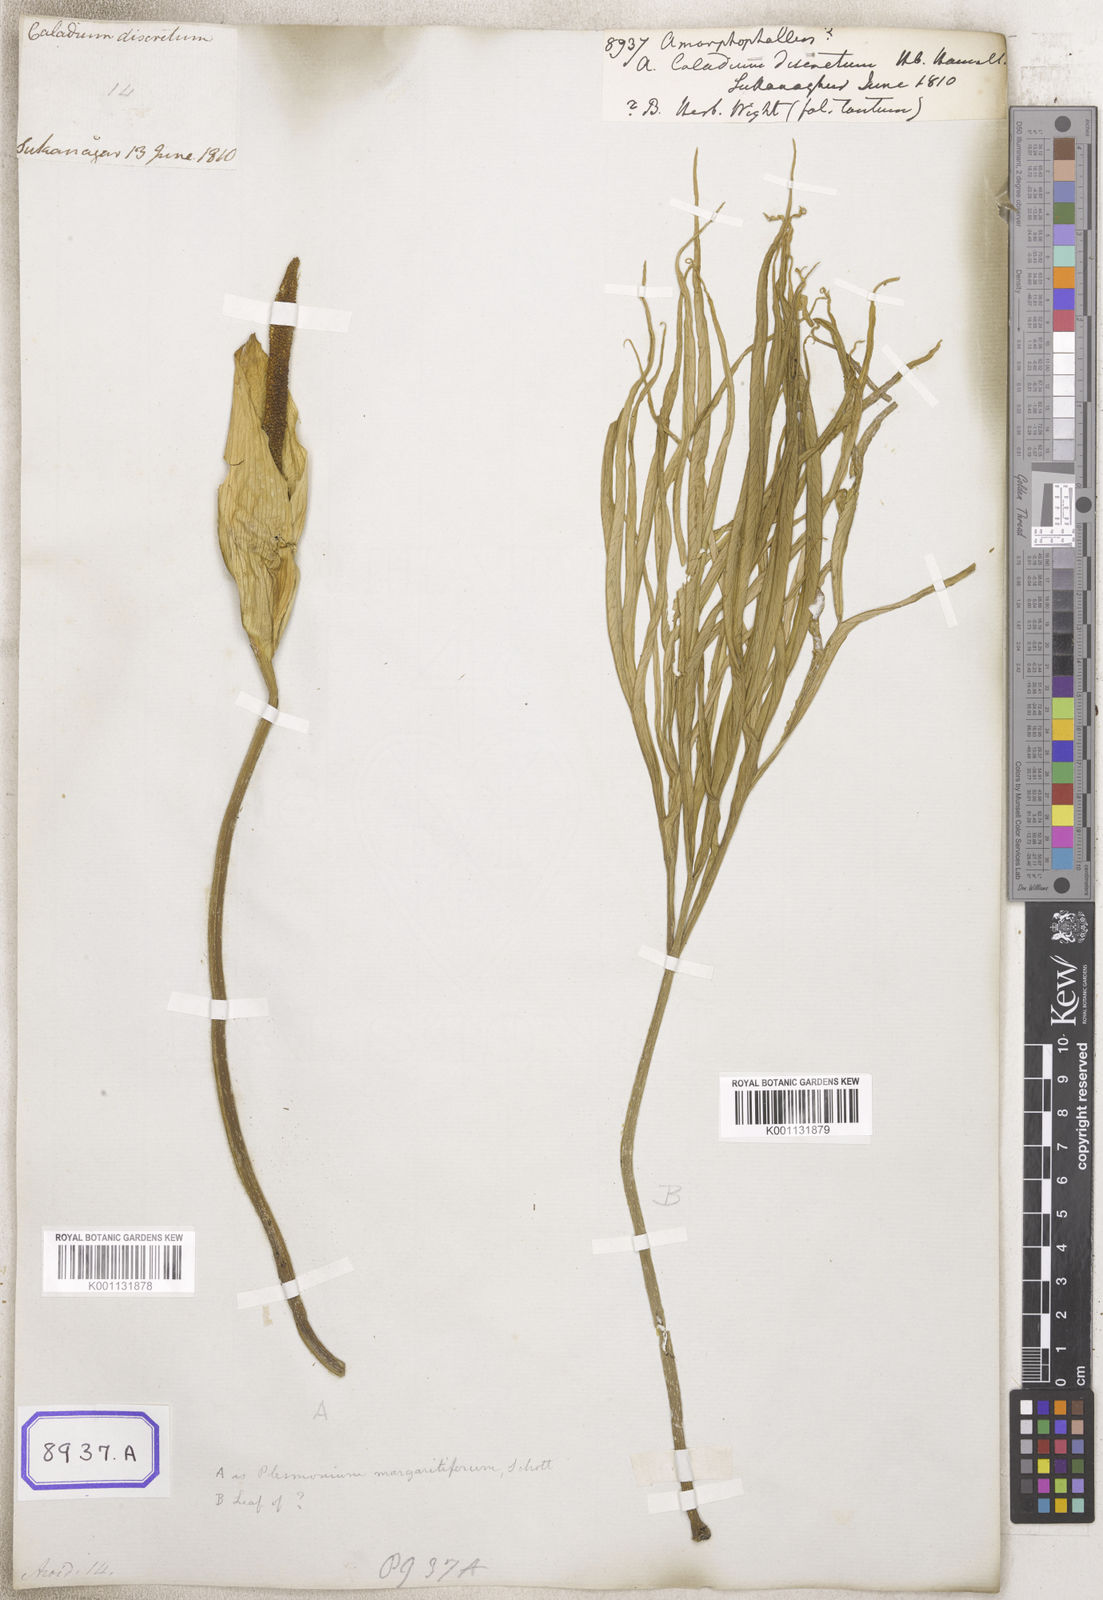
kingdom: Plantae
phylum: Tracheophyta
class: Liliopsida
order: Alismatales
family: Araceae
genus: Amorphophallus
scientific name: Amorphophallus
